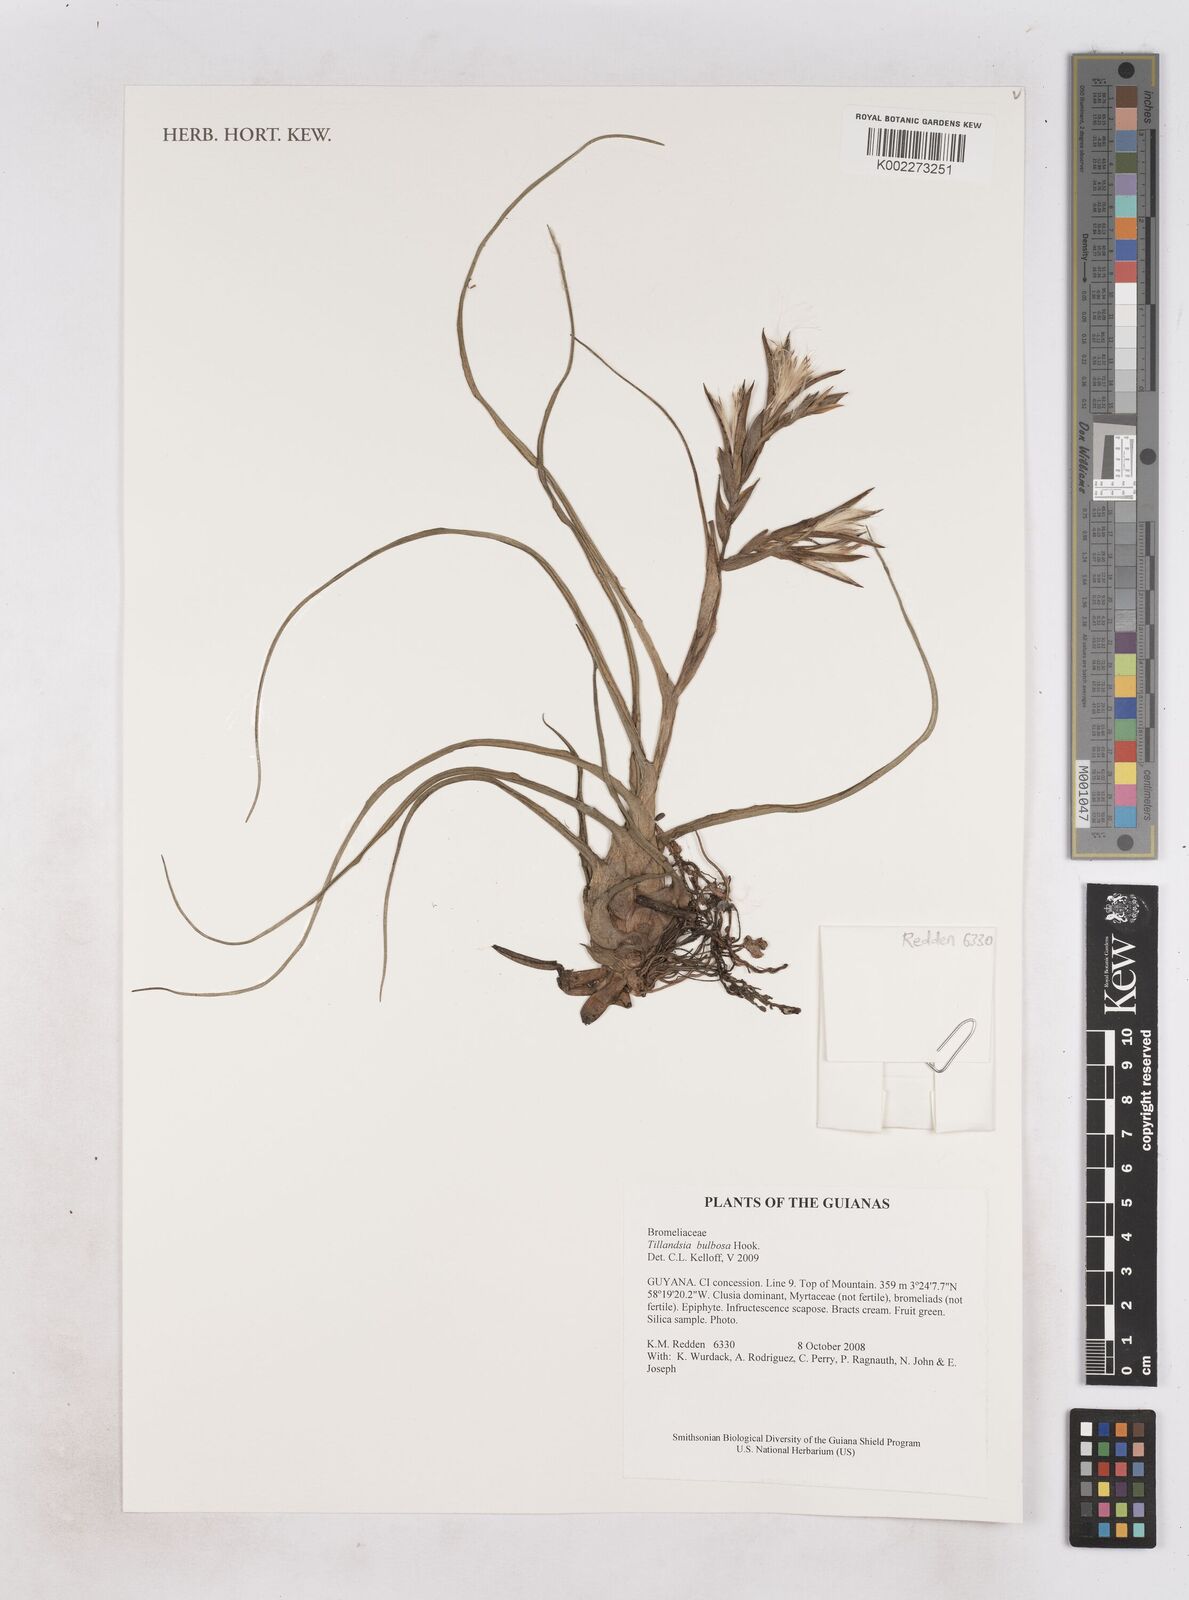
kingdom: Plantae
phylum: Tracheophyta
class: Liliopsida
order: Poales
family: Bromeliaceae
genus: Tillandsia
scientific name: Tillandsia bulbosa
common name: Bulbous airplant
